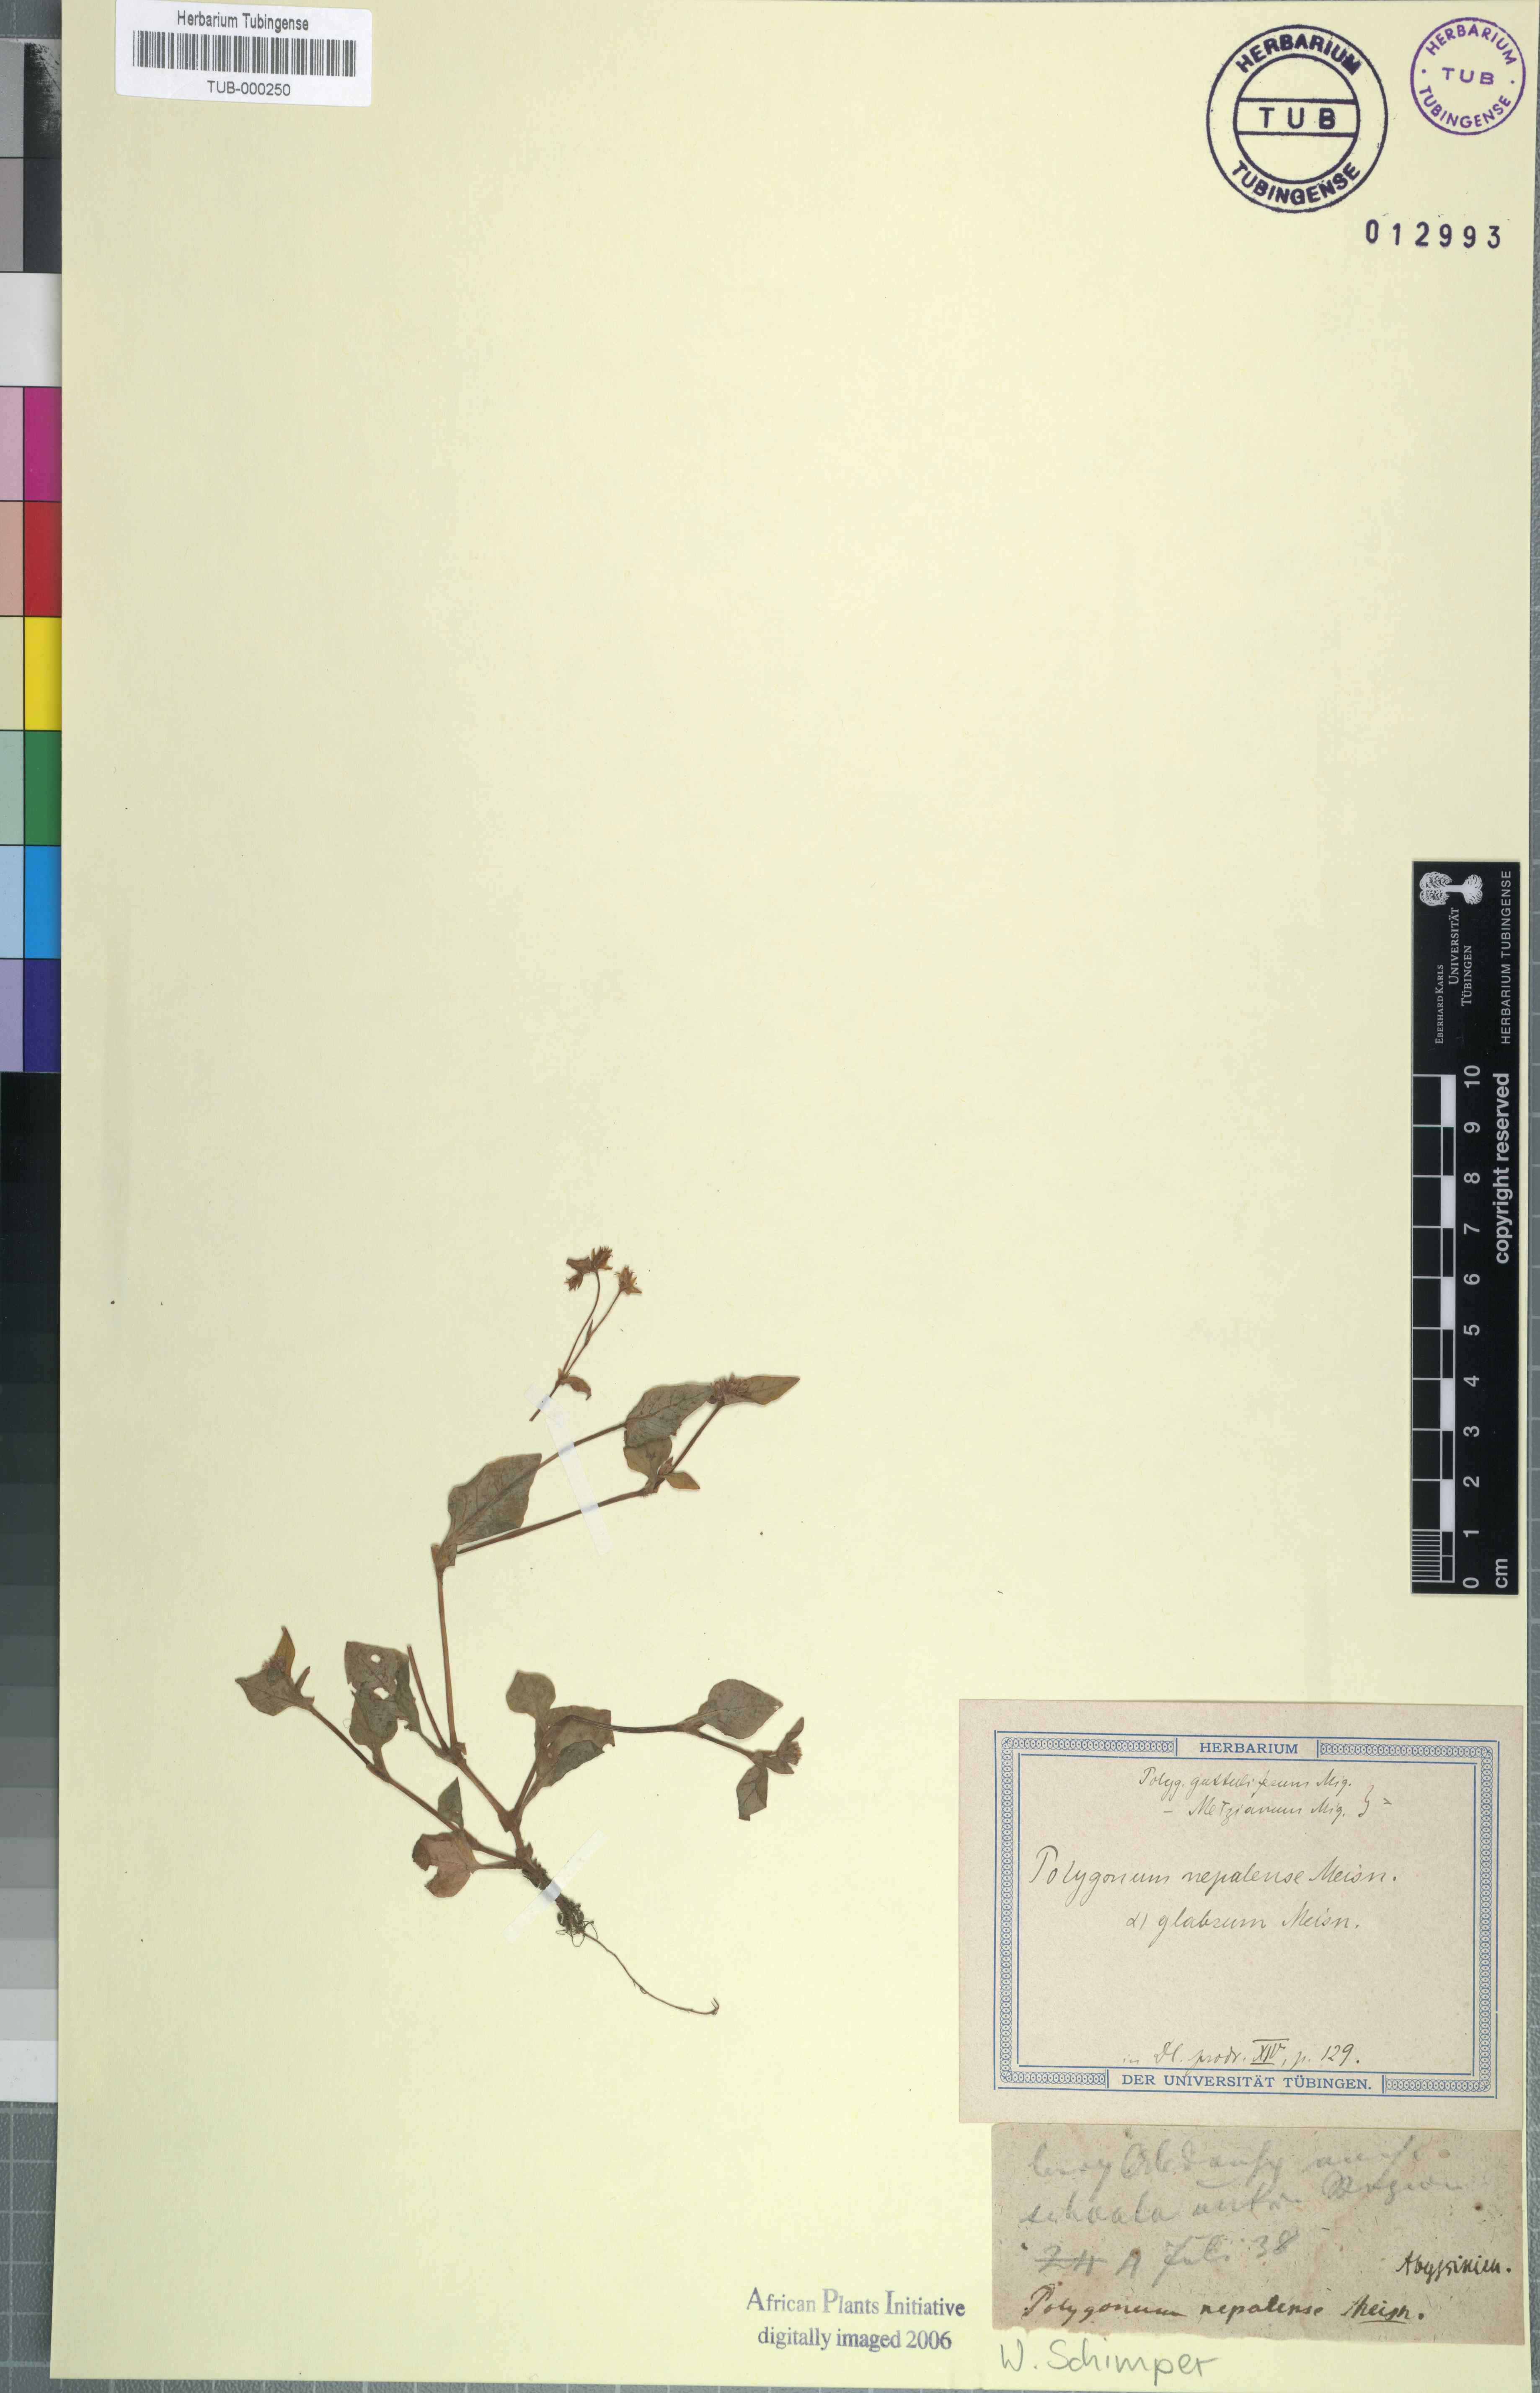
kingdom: Plantae
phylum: Tracheophyta
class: Magnoliopsida
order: Caryophyllales
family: Polygonaceae
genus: Persicaria
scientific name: Persicaria nepalensis
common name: Nepal persicaria
